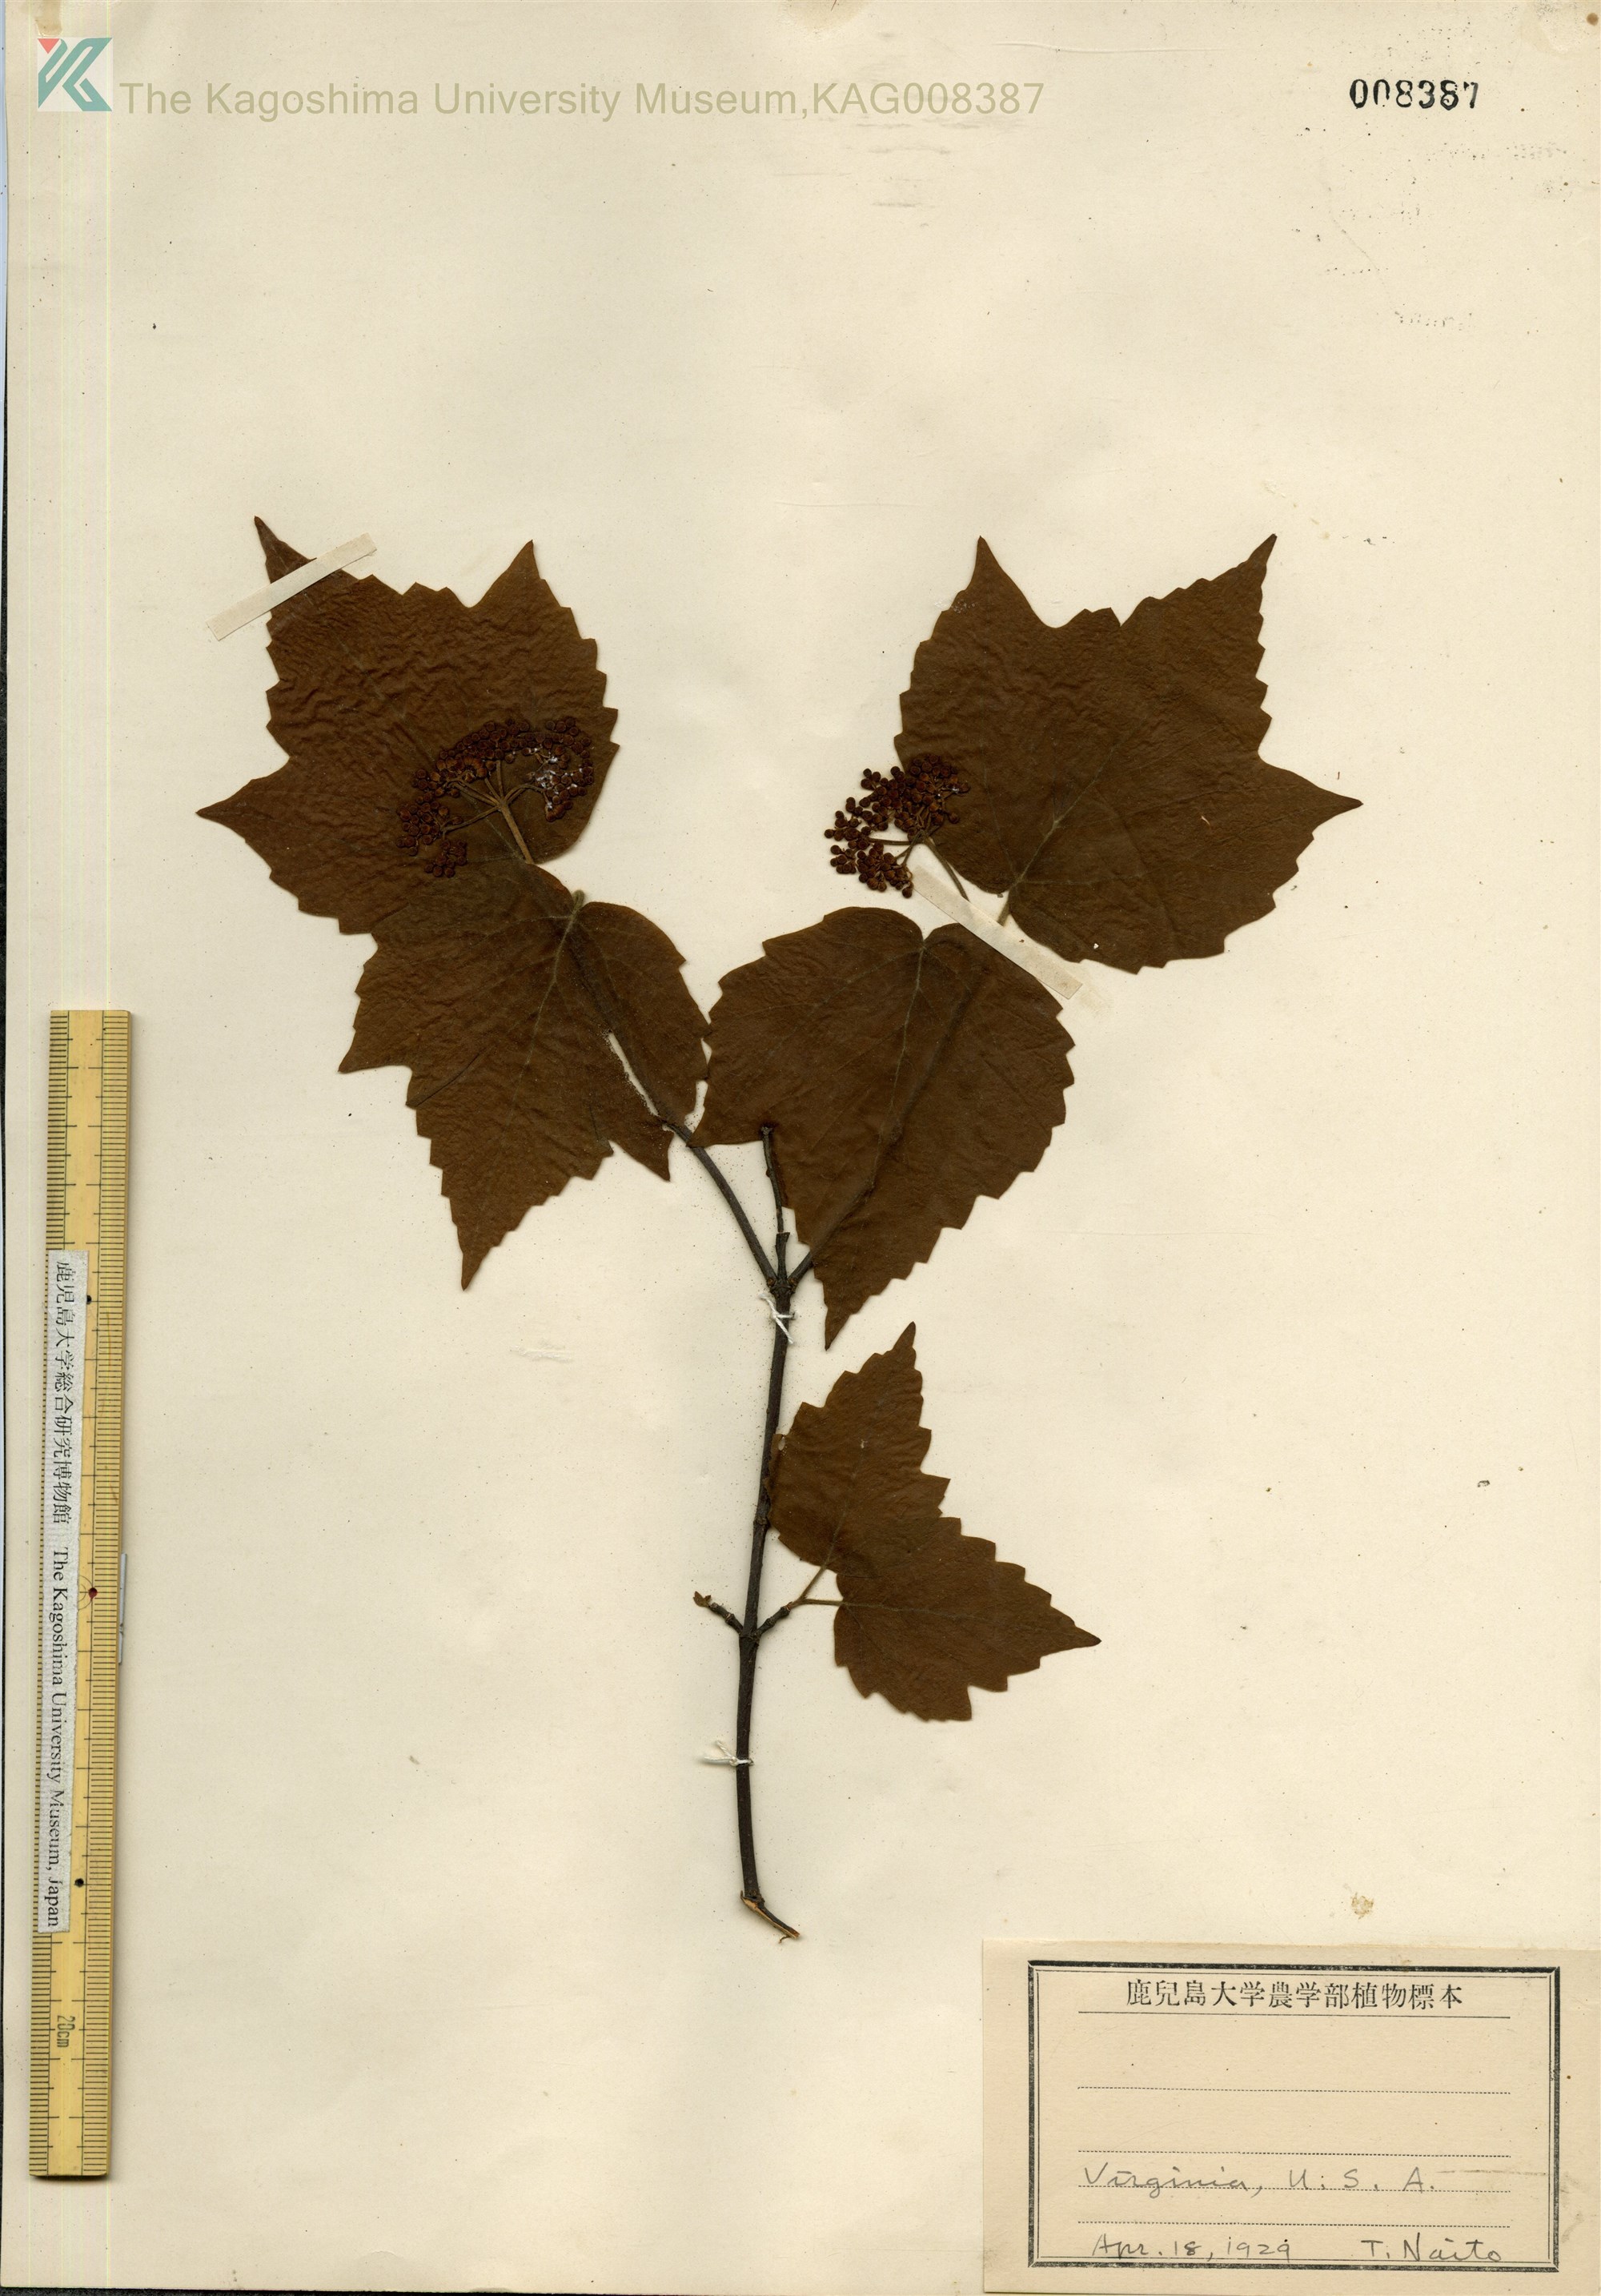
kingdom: Plantae
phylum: Tracheophyta
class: Magnoliopsida
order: Dipsacales
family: Viburnaceae
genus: Viburnum
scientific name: Viburnum acerifolium
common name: Dockmackie
